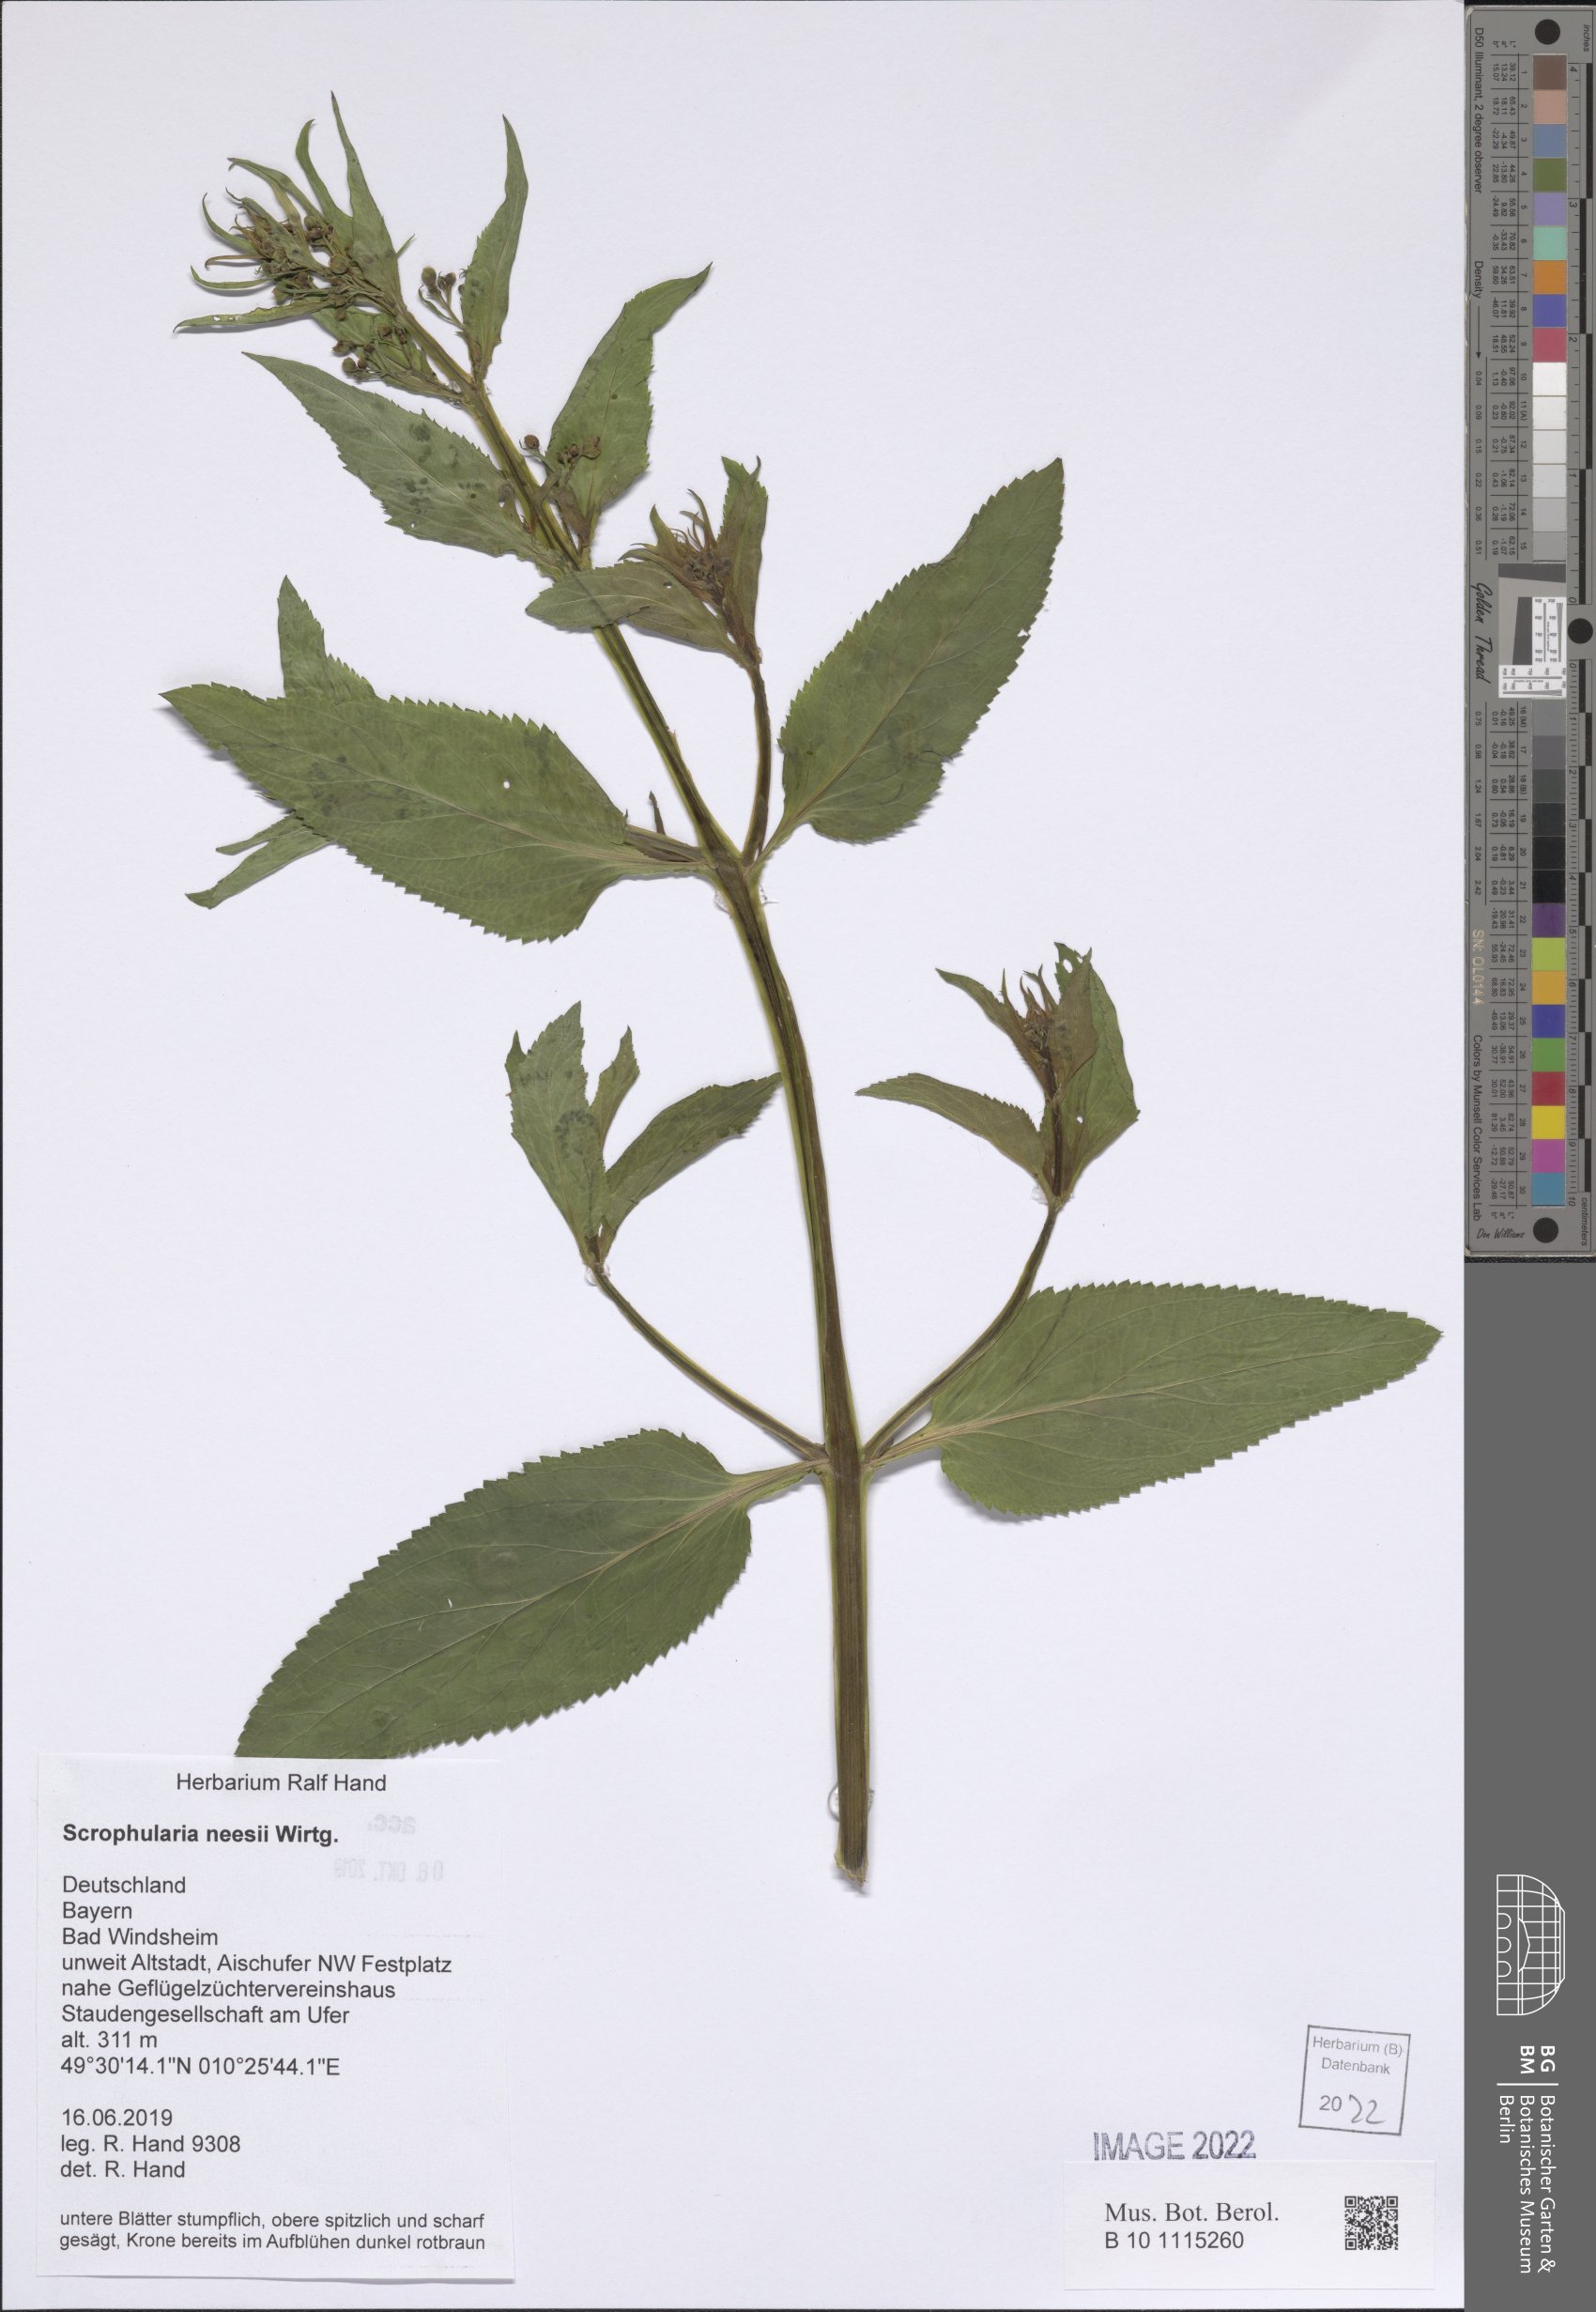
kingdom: Plantae
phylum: Tracheophyta
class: Magnoliopsida
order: Lamiales
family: Scrophulariaceae
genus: Scrophularia
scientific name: Scrophularia neesii
